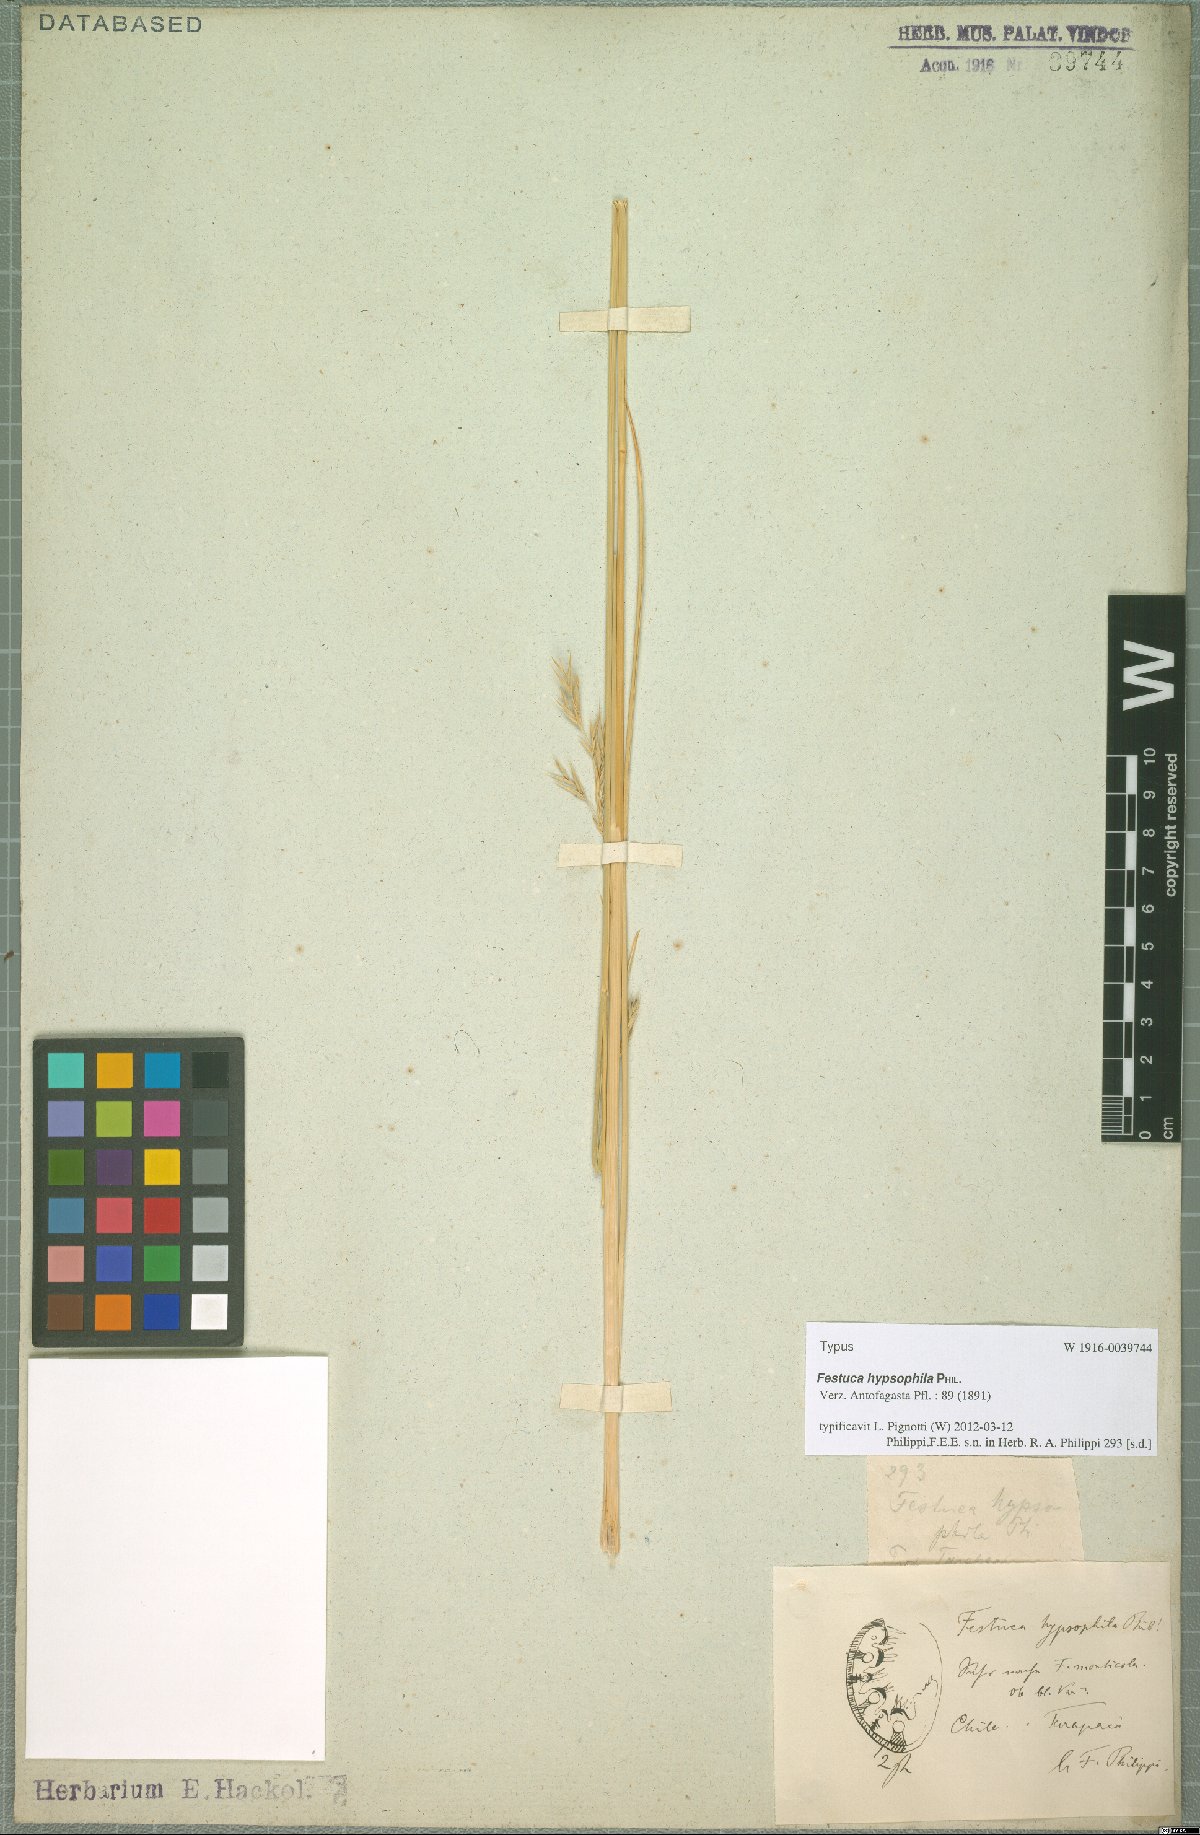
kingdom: Plantae
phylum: Tracheophyta
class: Liliopsida
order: Poales
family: Poaceae
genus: Festuca
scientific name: Festuca hypsophila
